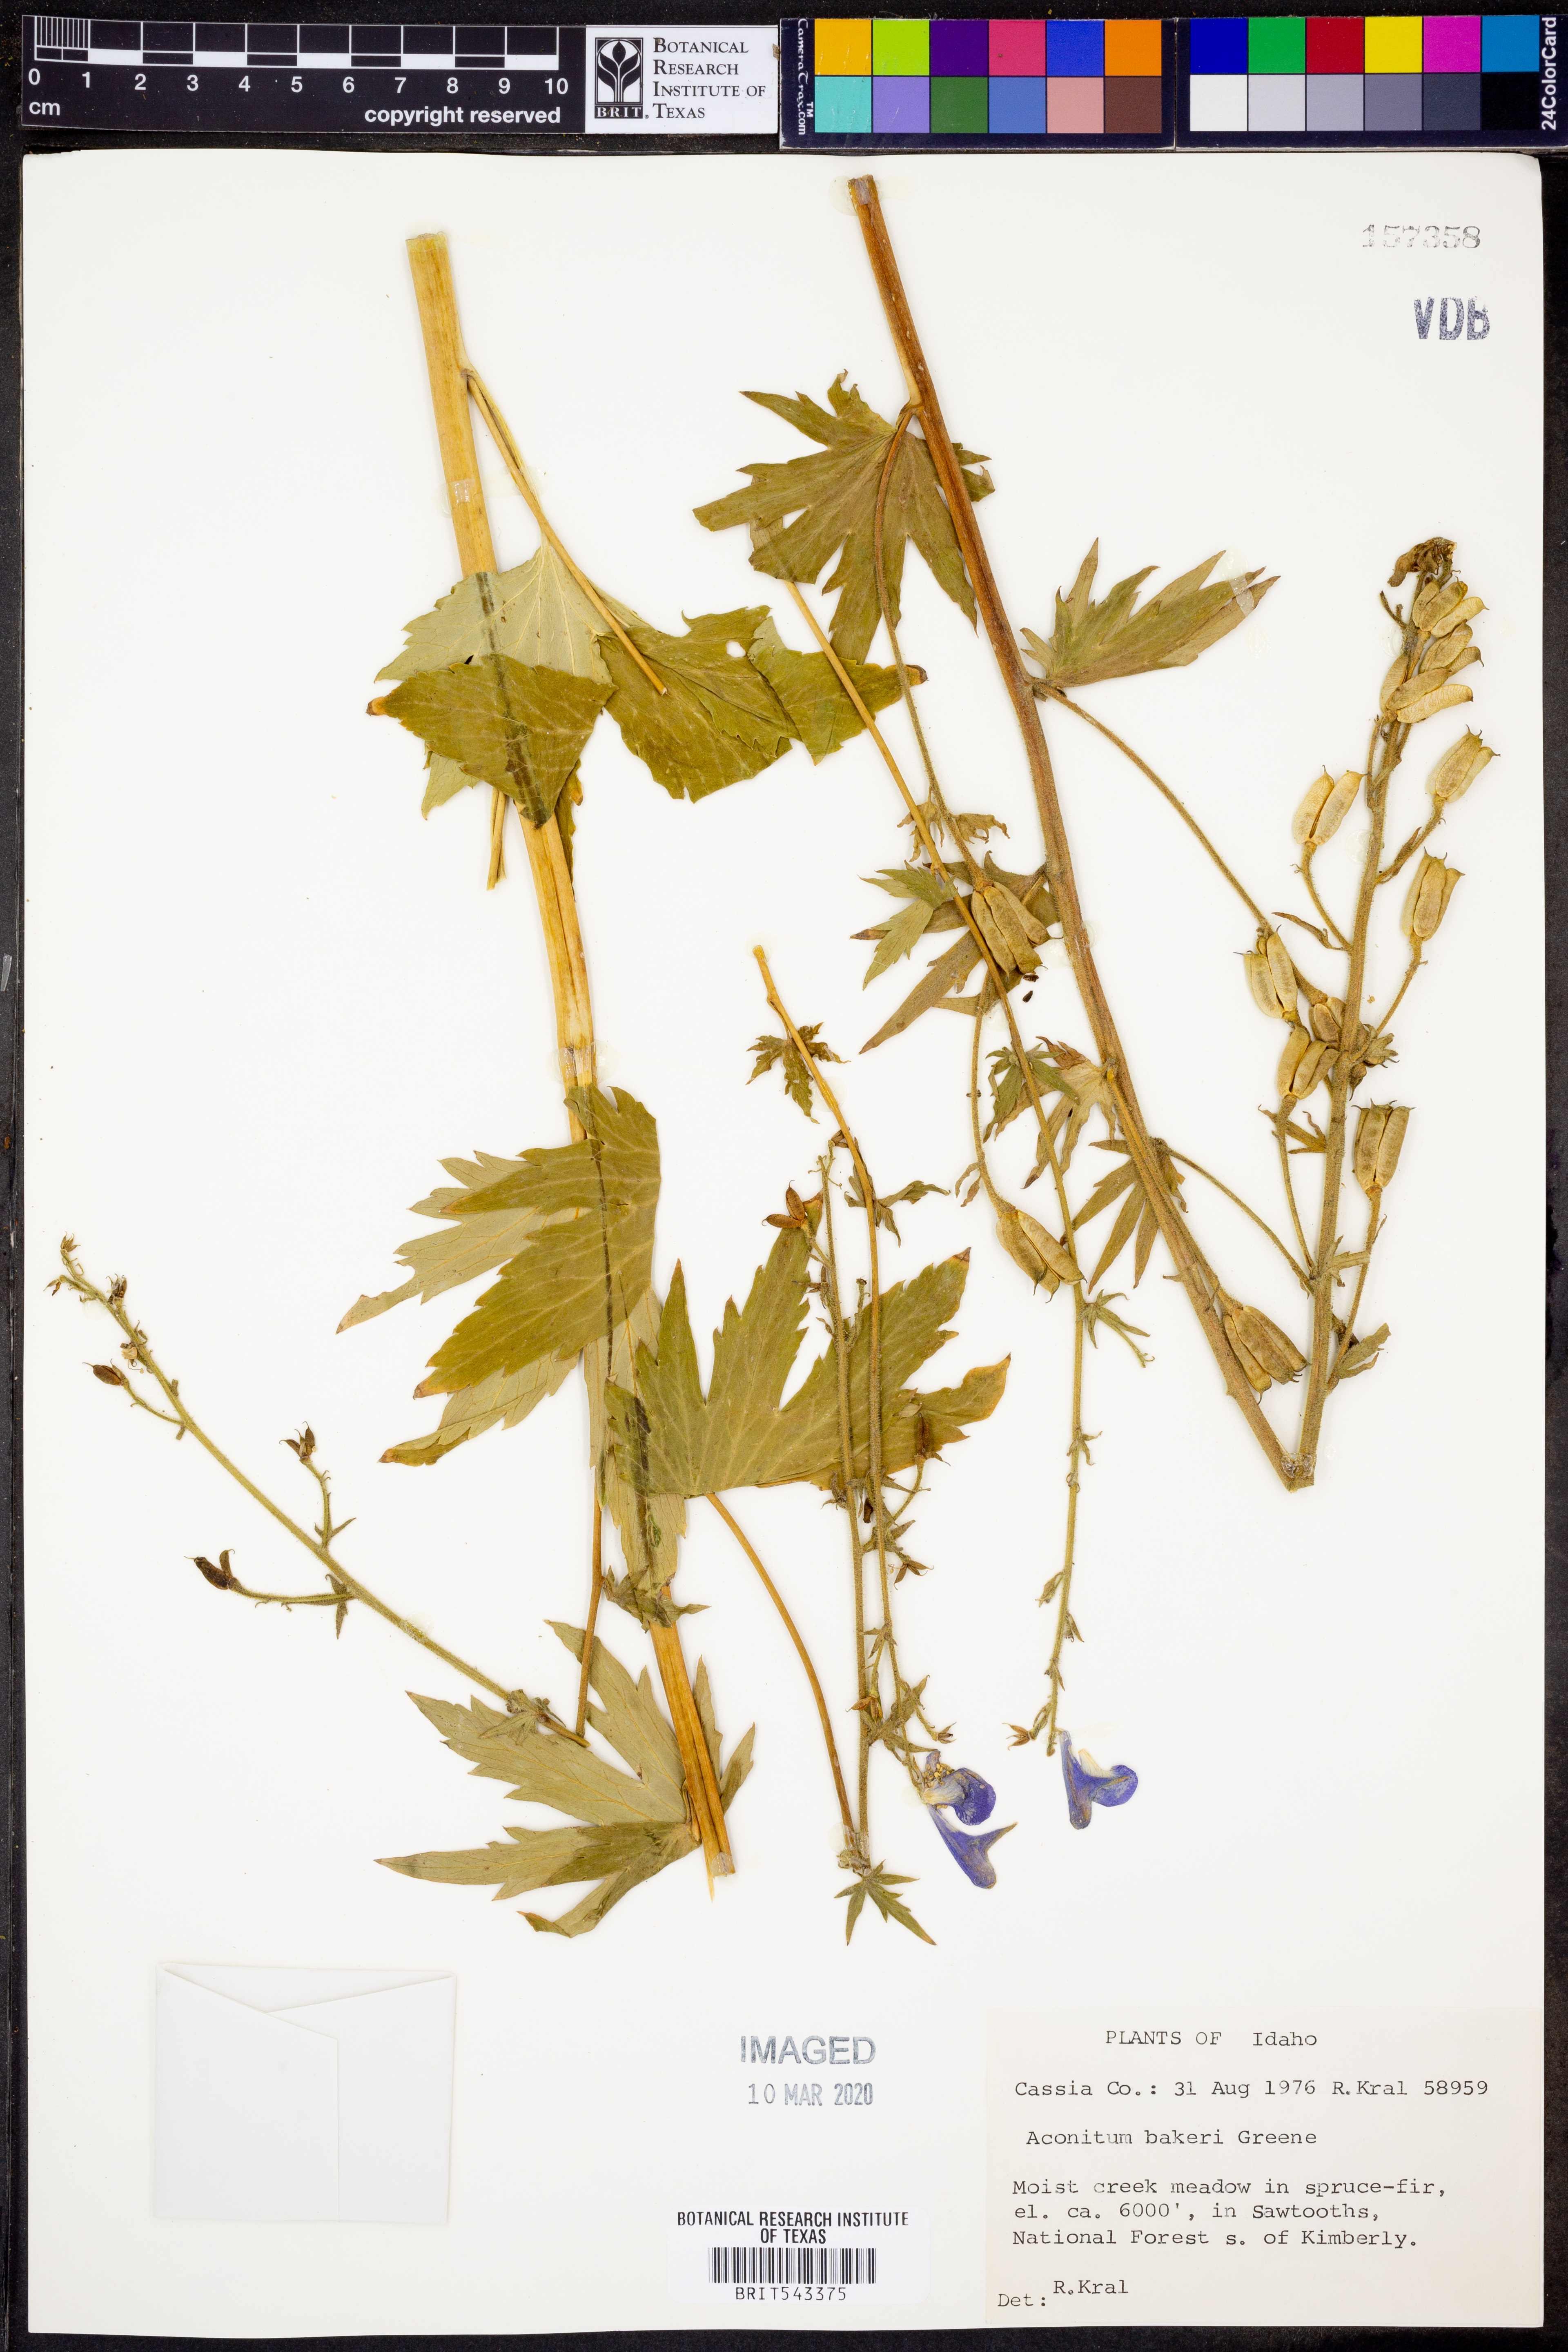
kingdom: Plantae
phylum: Tracheophyta
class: Magnoliopsida
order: Ranunculales
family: Ranunculaceae
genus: Aconitum
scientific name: Aconitum columbianum
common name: Columbia aconite
